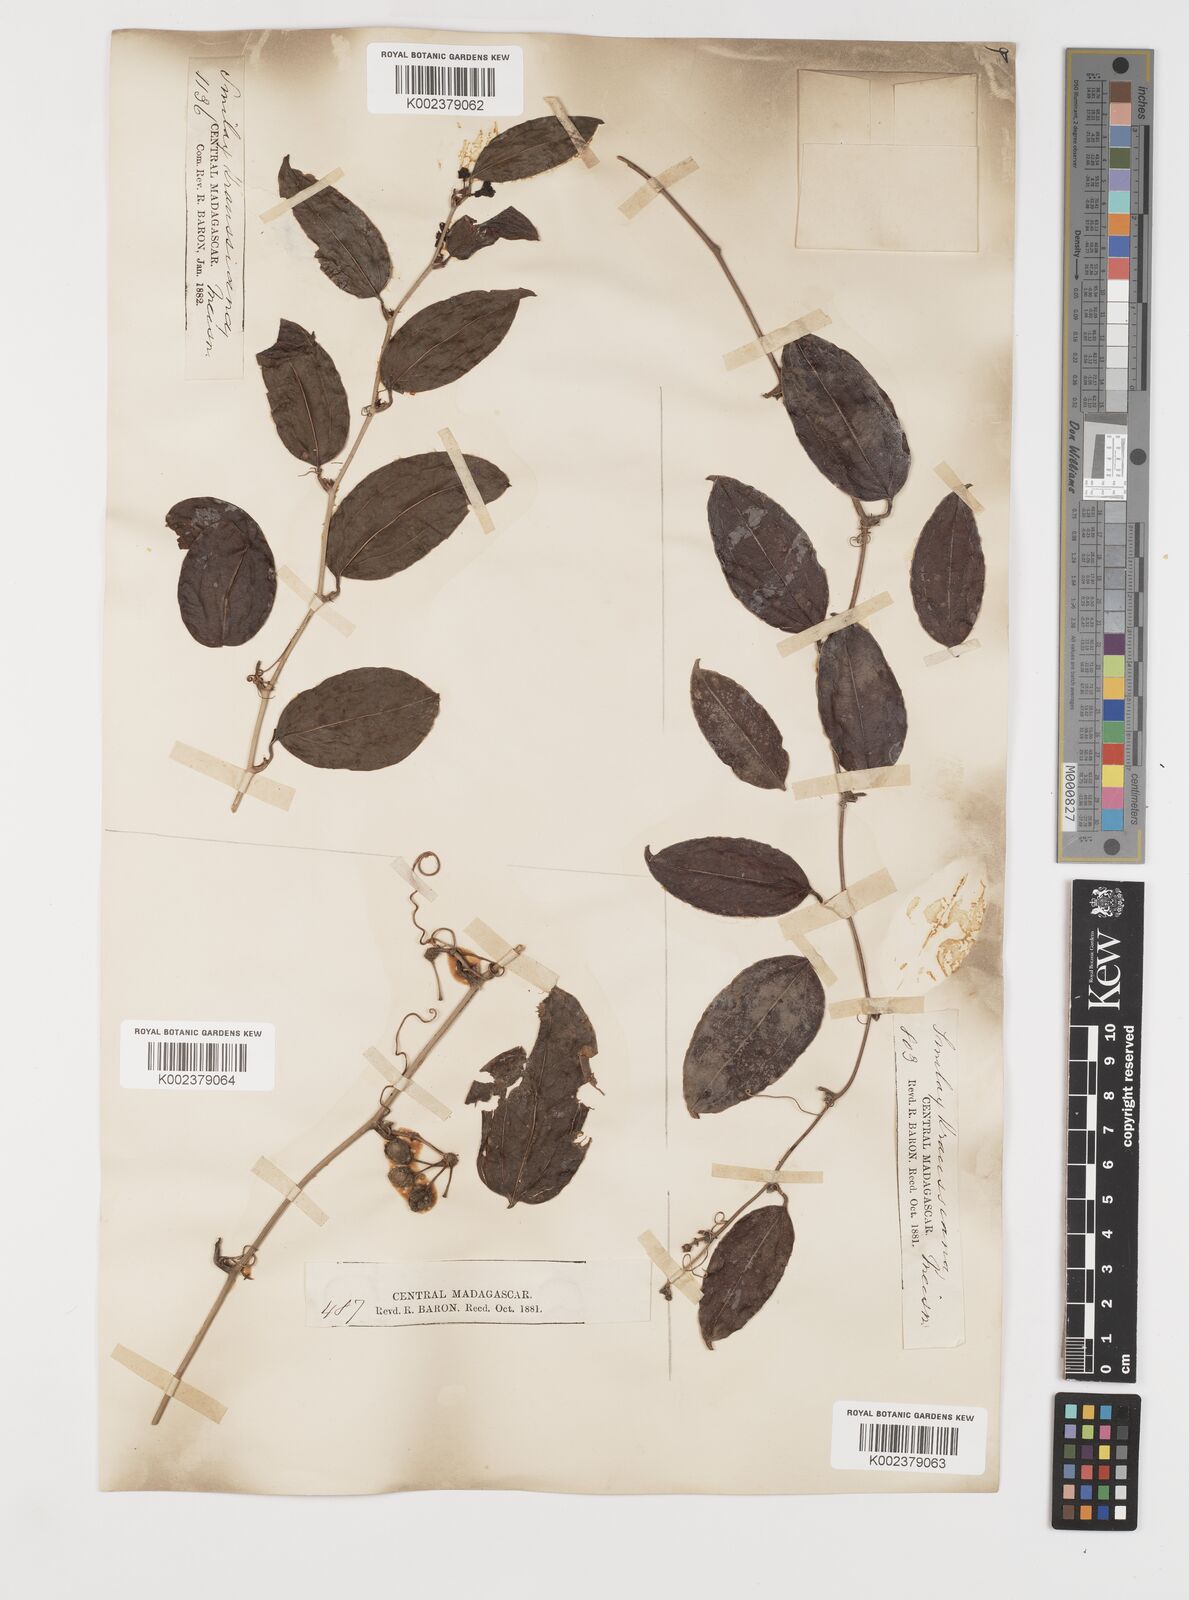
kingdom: Plantae
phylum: Tracheophyta
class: Liliopsida
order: Liliales
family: Smilacaceae
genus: Smilax
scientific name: Smilax anceps
